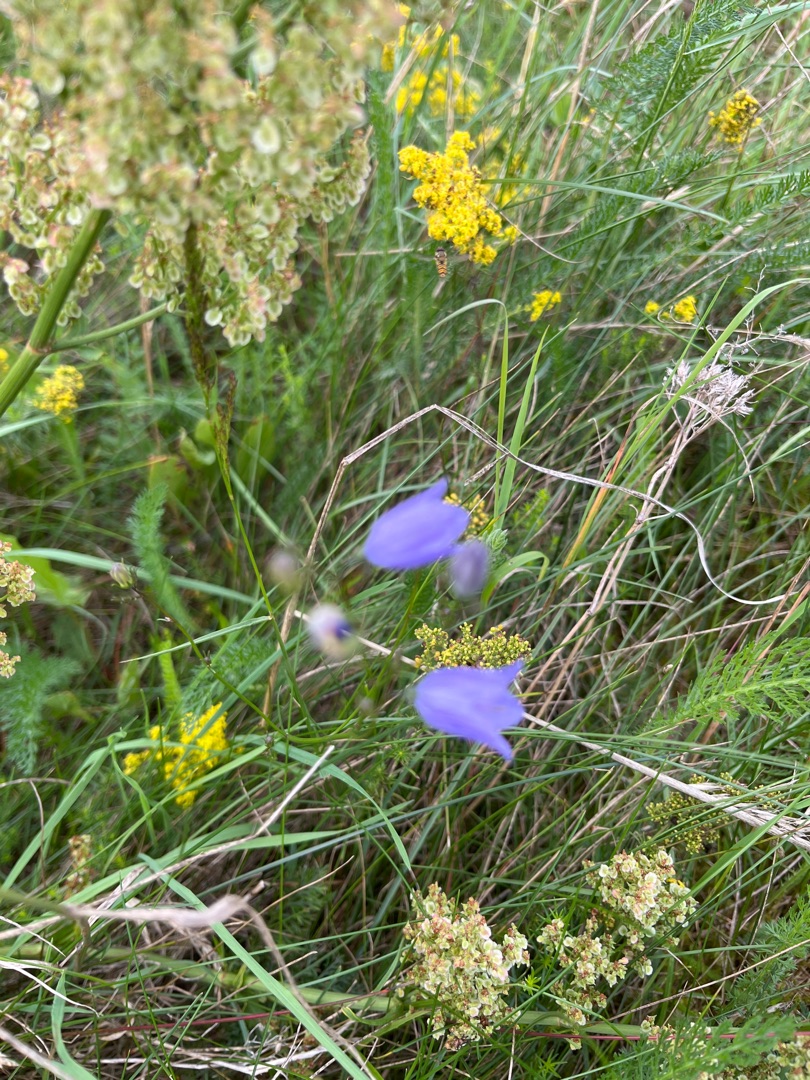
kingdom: Plantae
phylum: Tracheophyta
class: Magnoliopsida
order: Asterales
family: Campanulaceae
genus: Campanula
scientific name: Campanula rotundifolia
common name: Liden klokke
